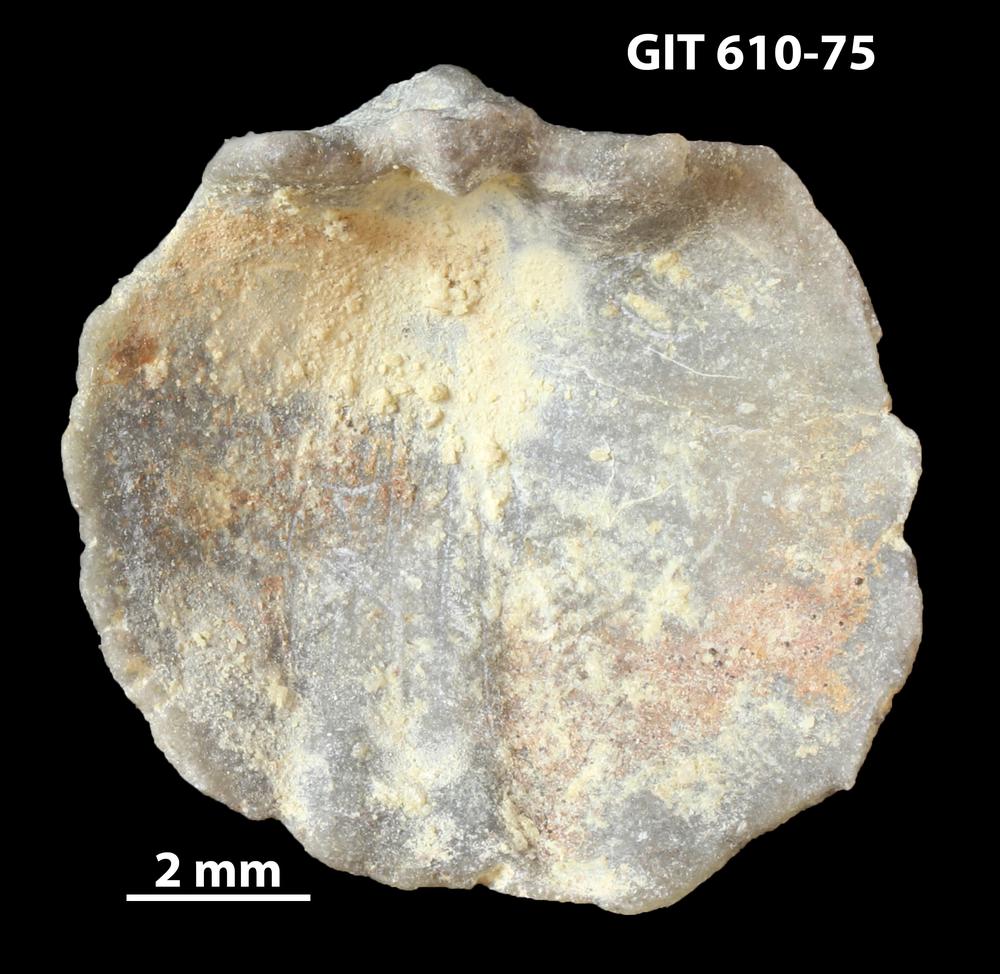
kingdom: Animalia
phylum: Brachiopoda
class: Rhynchonellata
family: Triplesiidae
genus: Triplesia
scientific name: Triplesia
